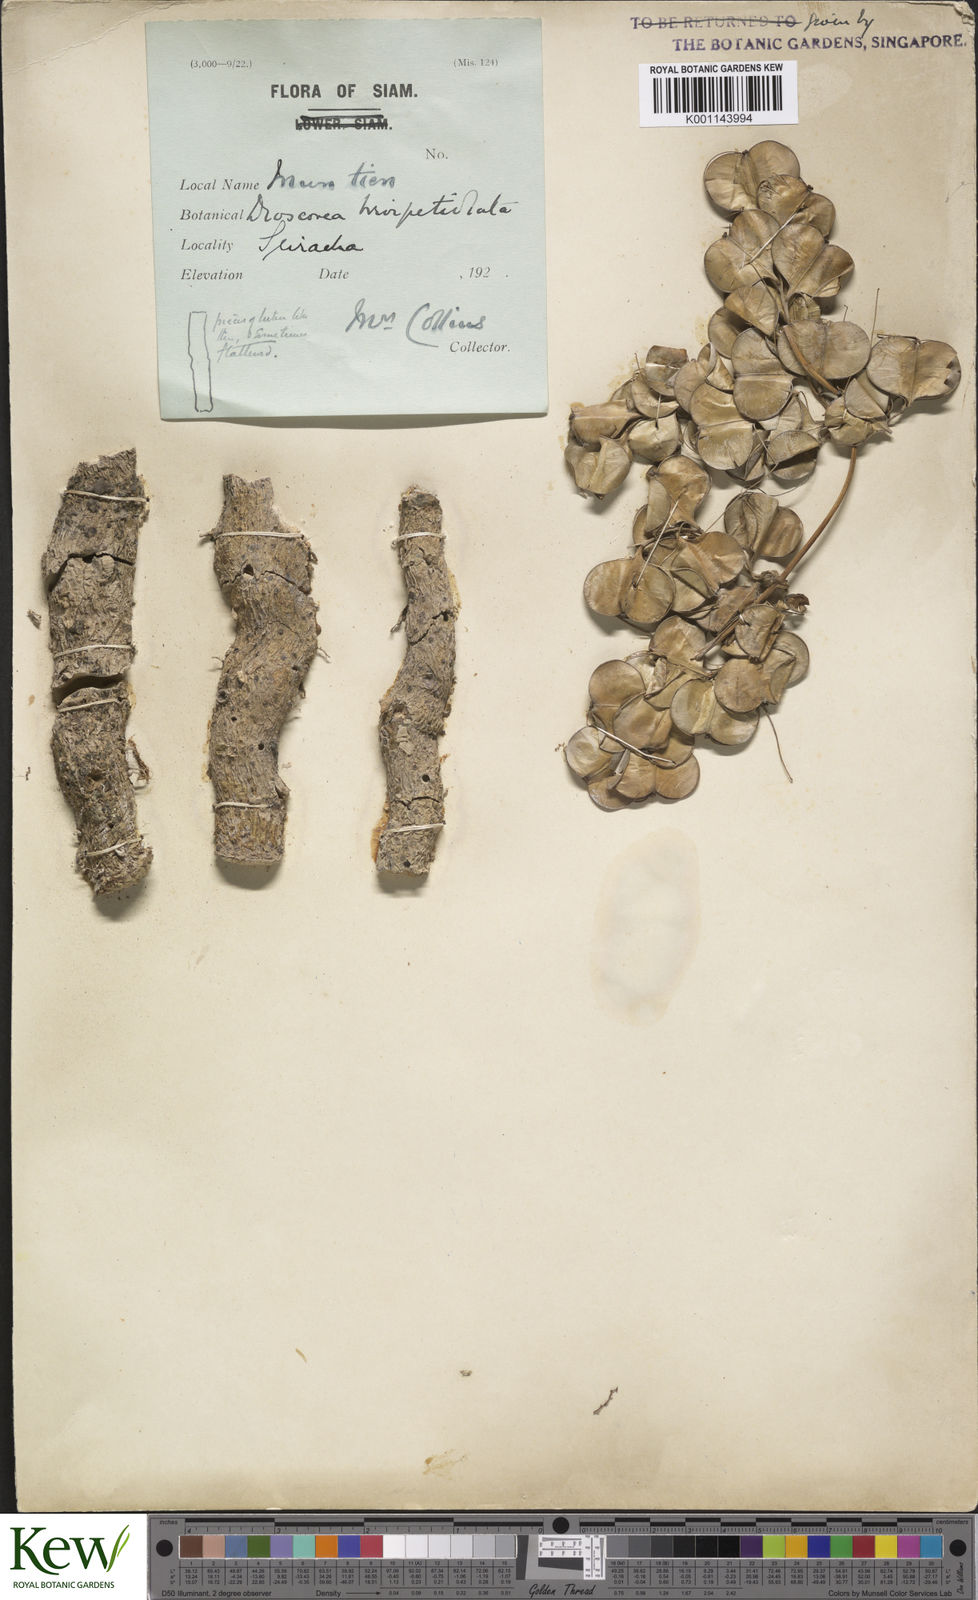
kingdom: Plantae
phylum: Tracheophyta
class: Liliopsida
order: Dioscoreales
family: Dioscoreaceae
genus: Dioscorea
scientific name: Dioscorea brevipetiolata
